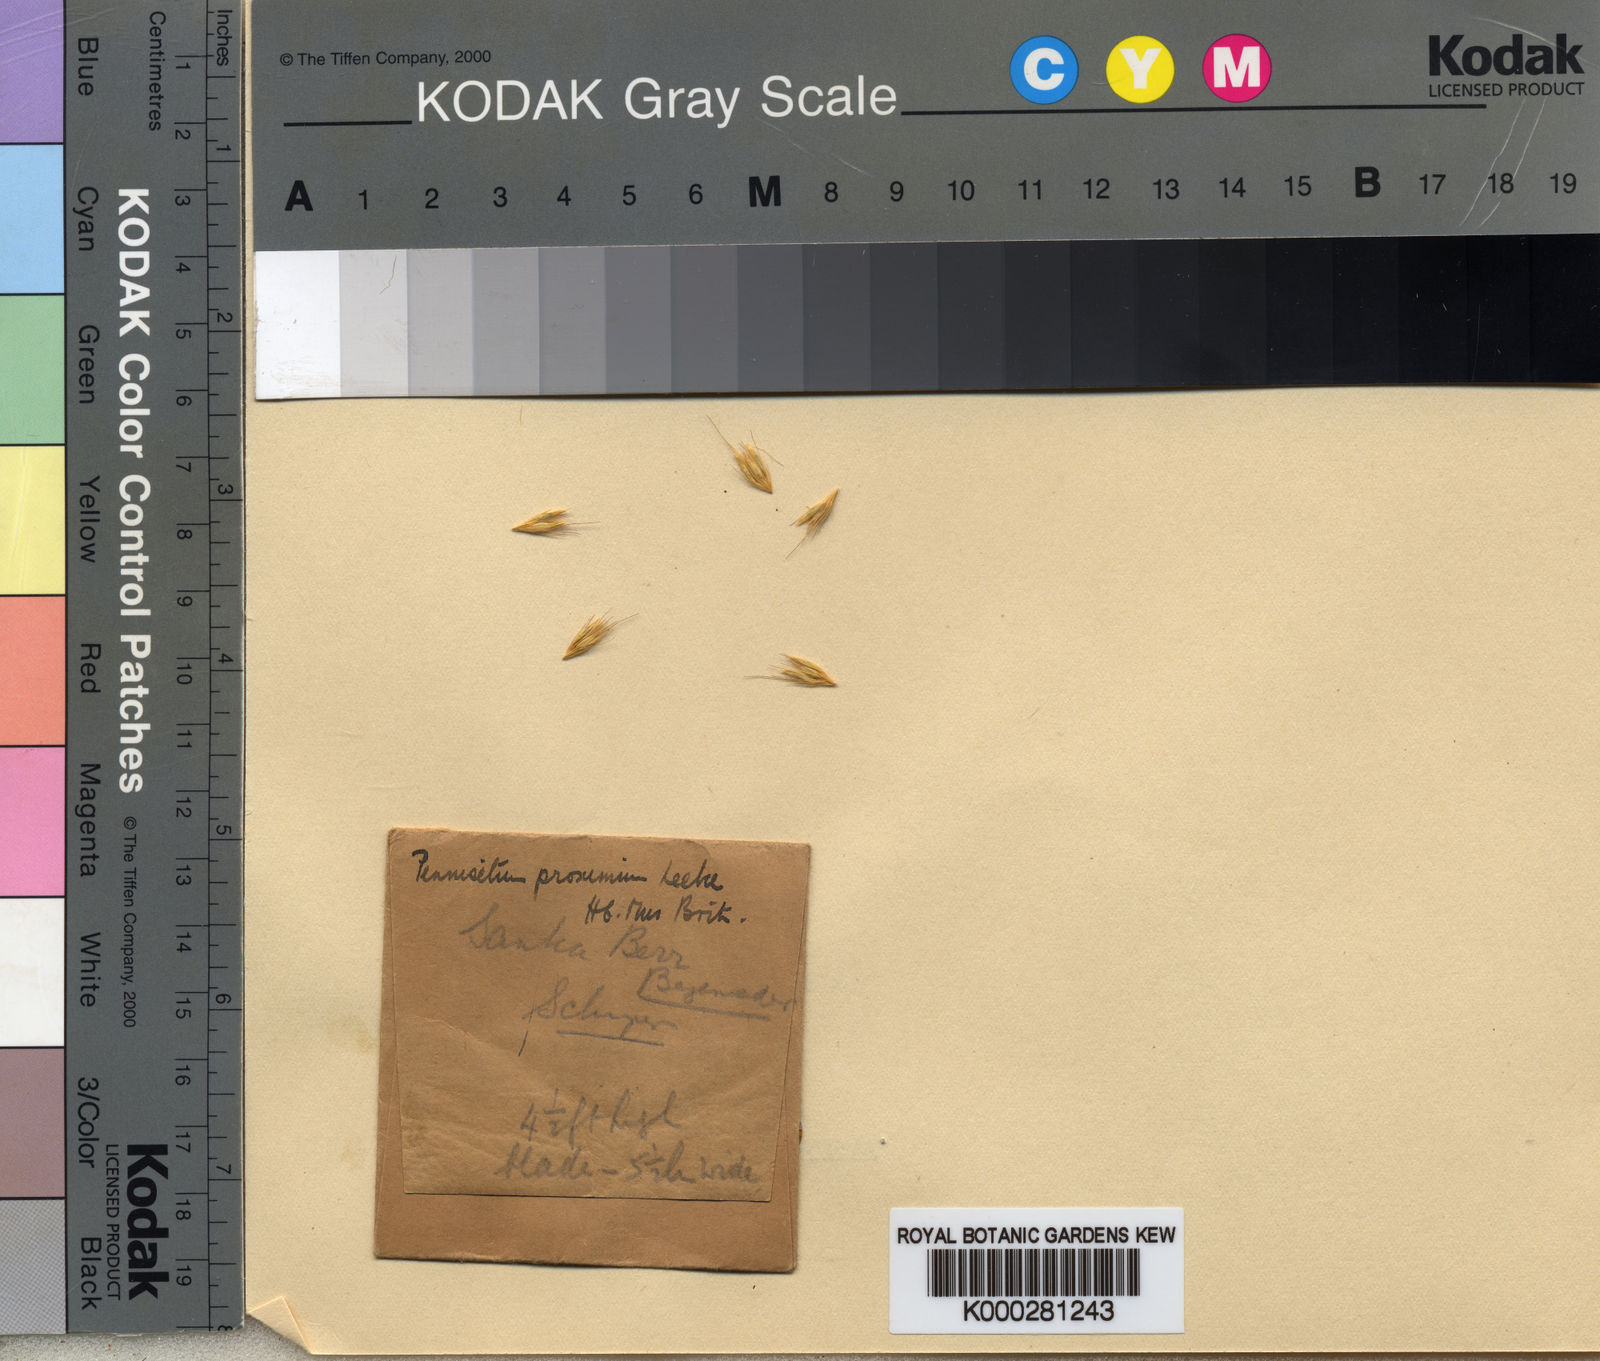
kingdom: Plantae
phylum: Tracheophyta
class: Liliopsida
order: Poales
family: Poaceae
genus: Cenchrus
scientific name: Cenchrus squamulatus
